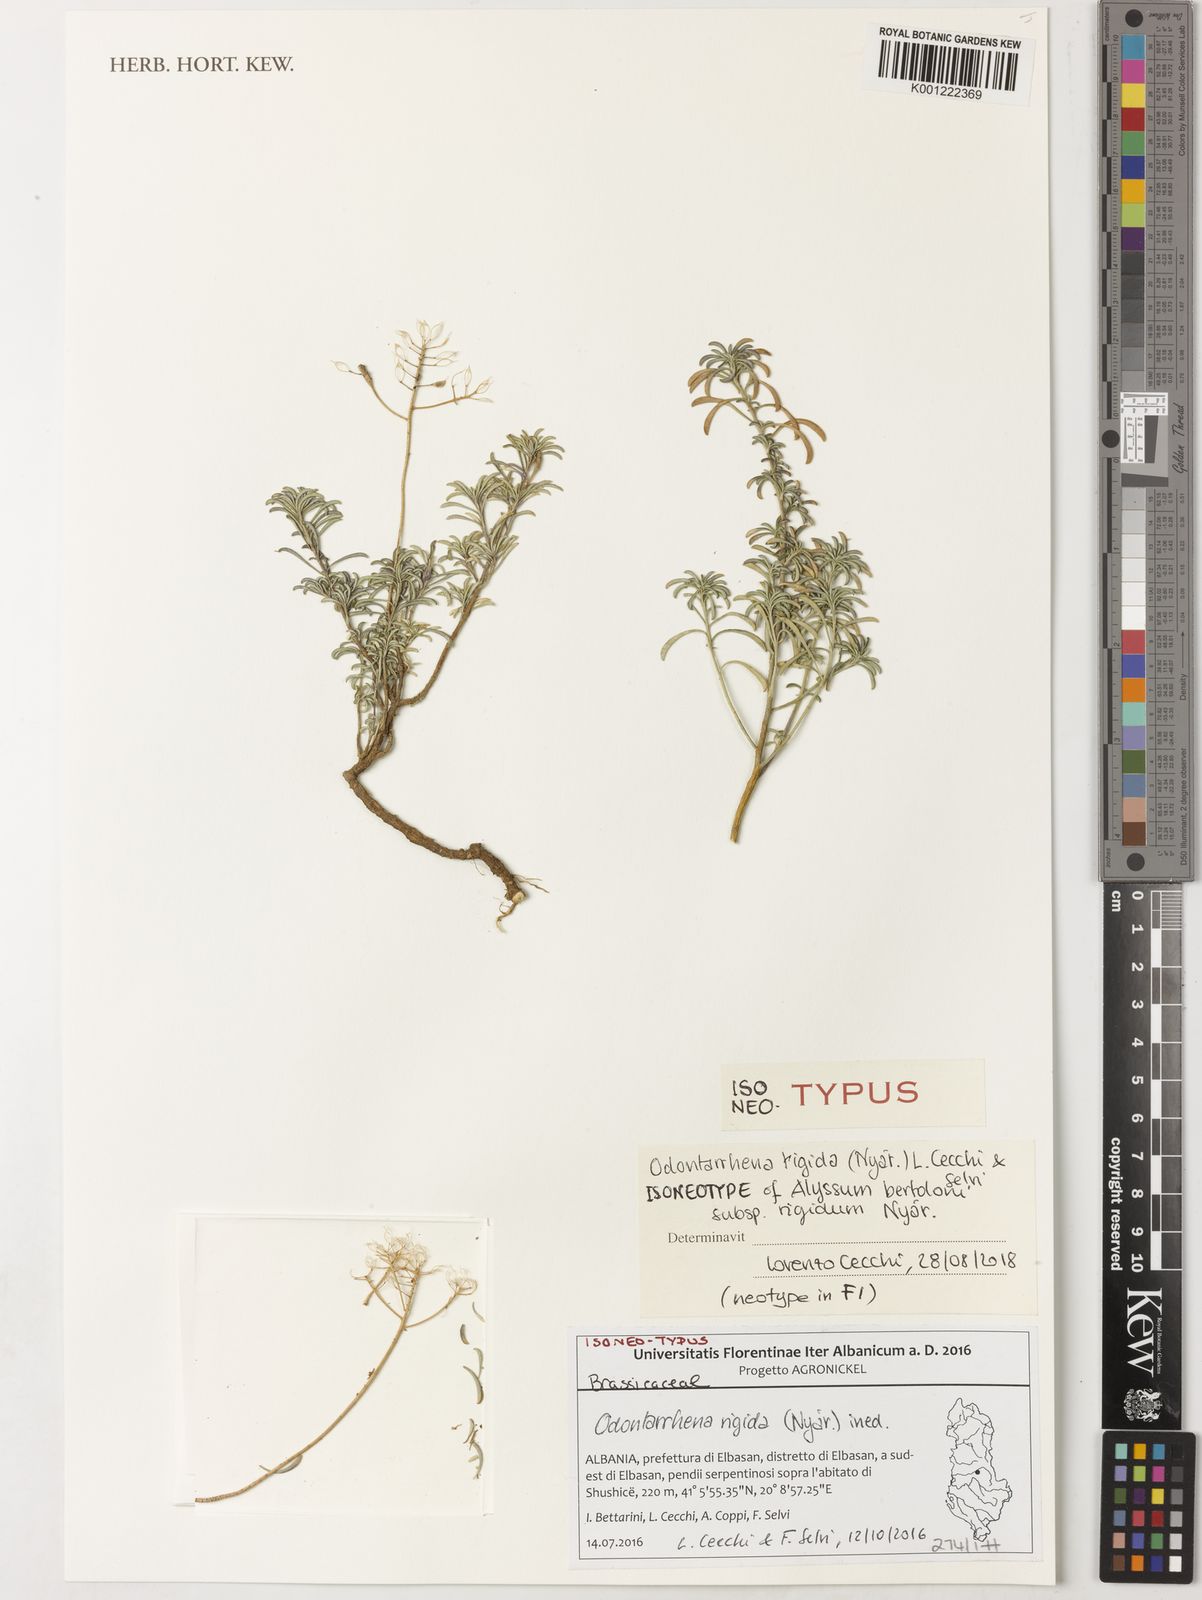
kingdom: Plantae
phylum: Tracheophyta
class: Magnoliopsida
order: Brassicales
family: Brassicaceae
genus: Odontarrhena
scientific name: Odontarrhena
